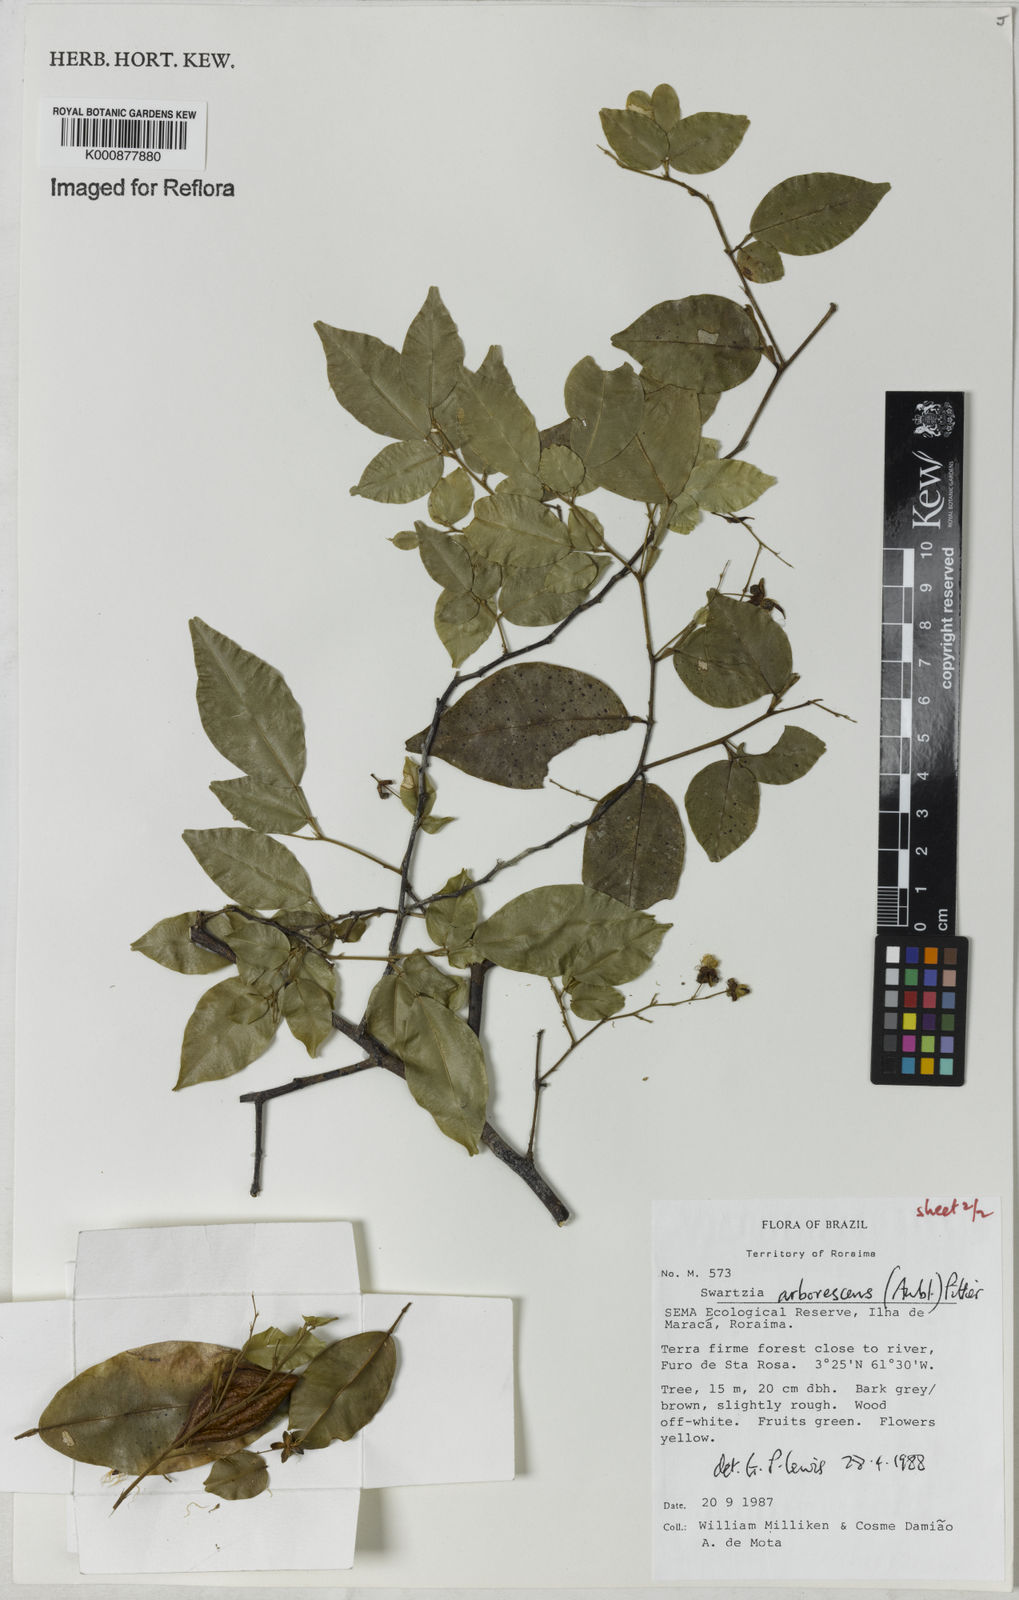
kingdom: Plantae
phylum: Tracheophyta
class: Magnoliopsida
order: Fabales
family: Fabaceae
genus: Swartzia
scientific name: Swartzia arborescens
